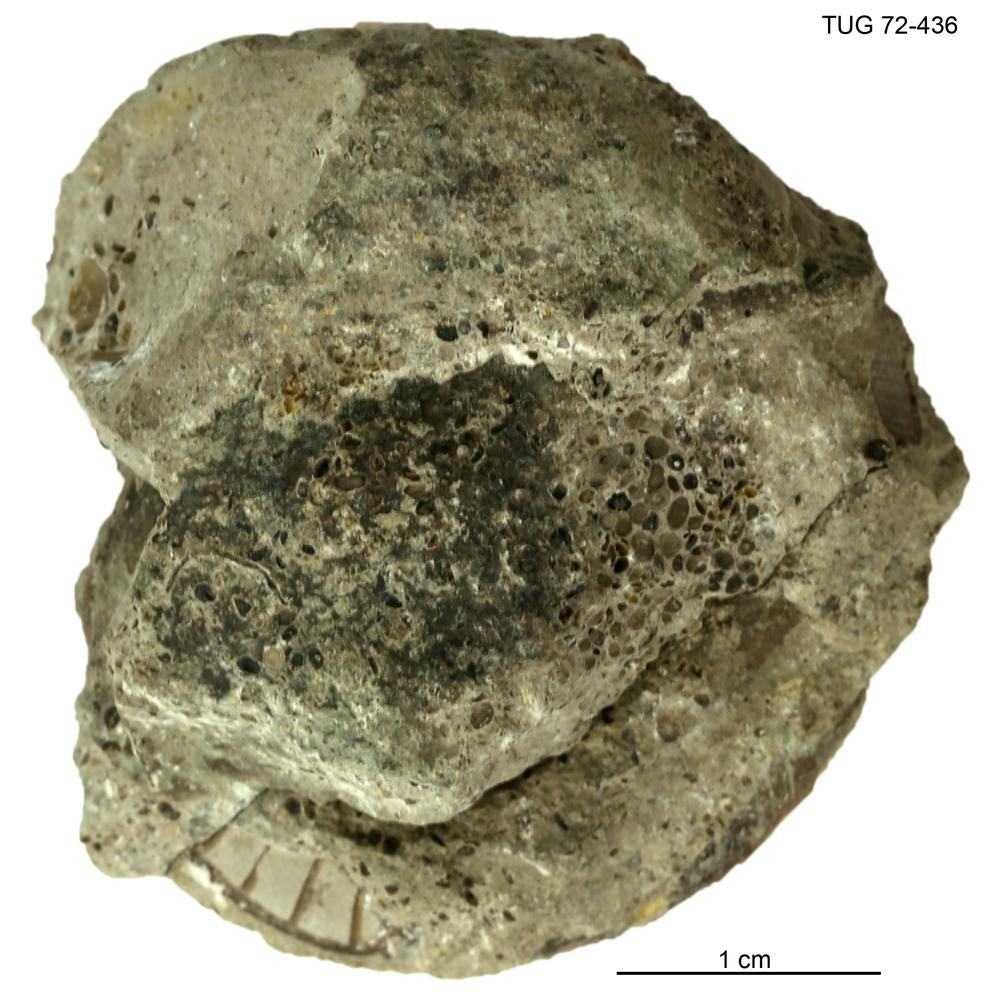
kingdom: Animalia
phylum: Brachiopoda
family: Sowerbyellidae
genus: Sowerbyella
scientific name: Sowerbyella
